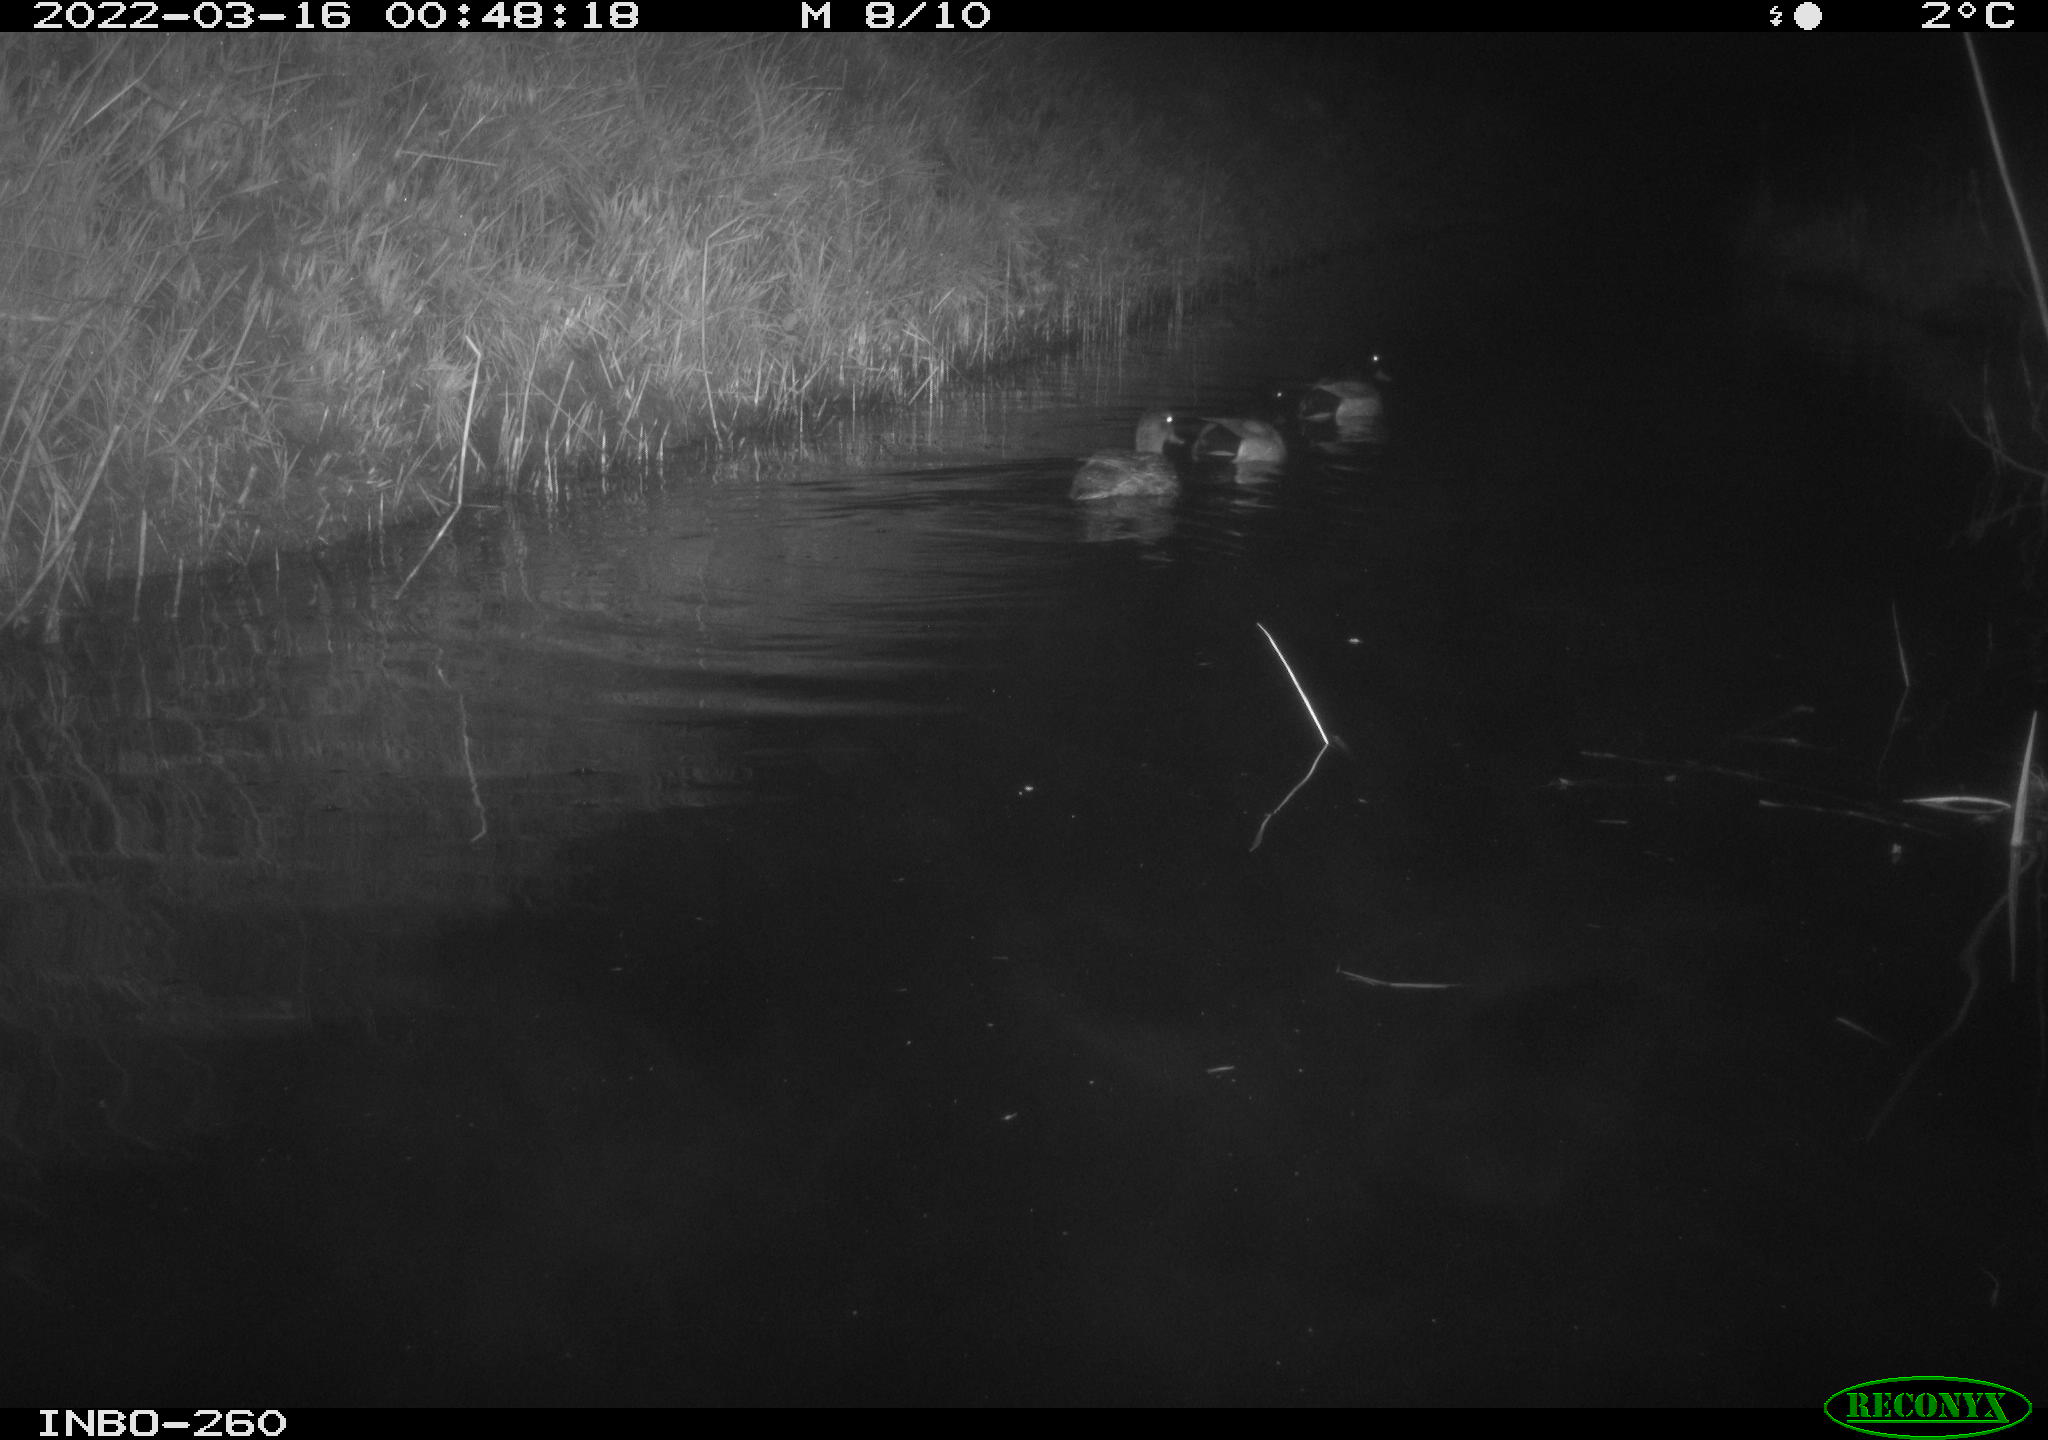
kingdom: Animalia
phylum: Chordata
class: Aves
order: Anseriformes
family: Anatidae
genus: Anas
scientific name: Anas platyrhynchos
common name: Mallard
